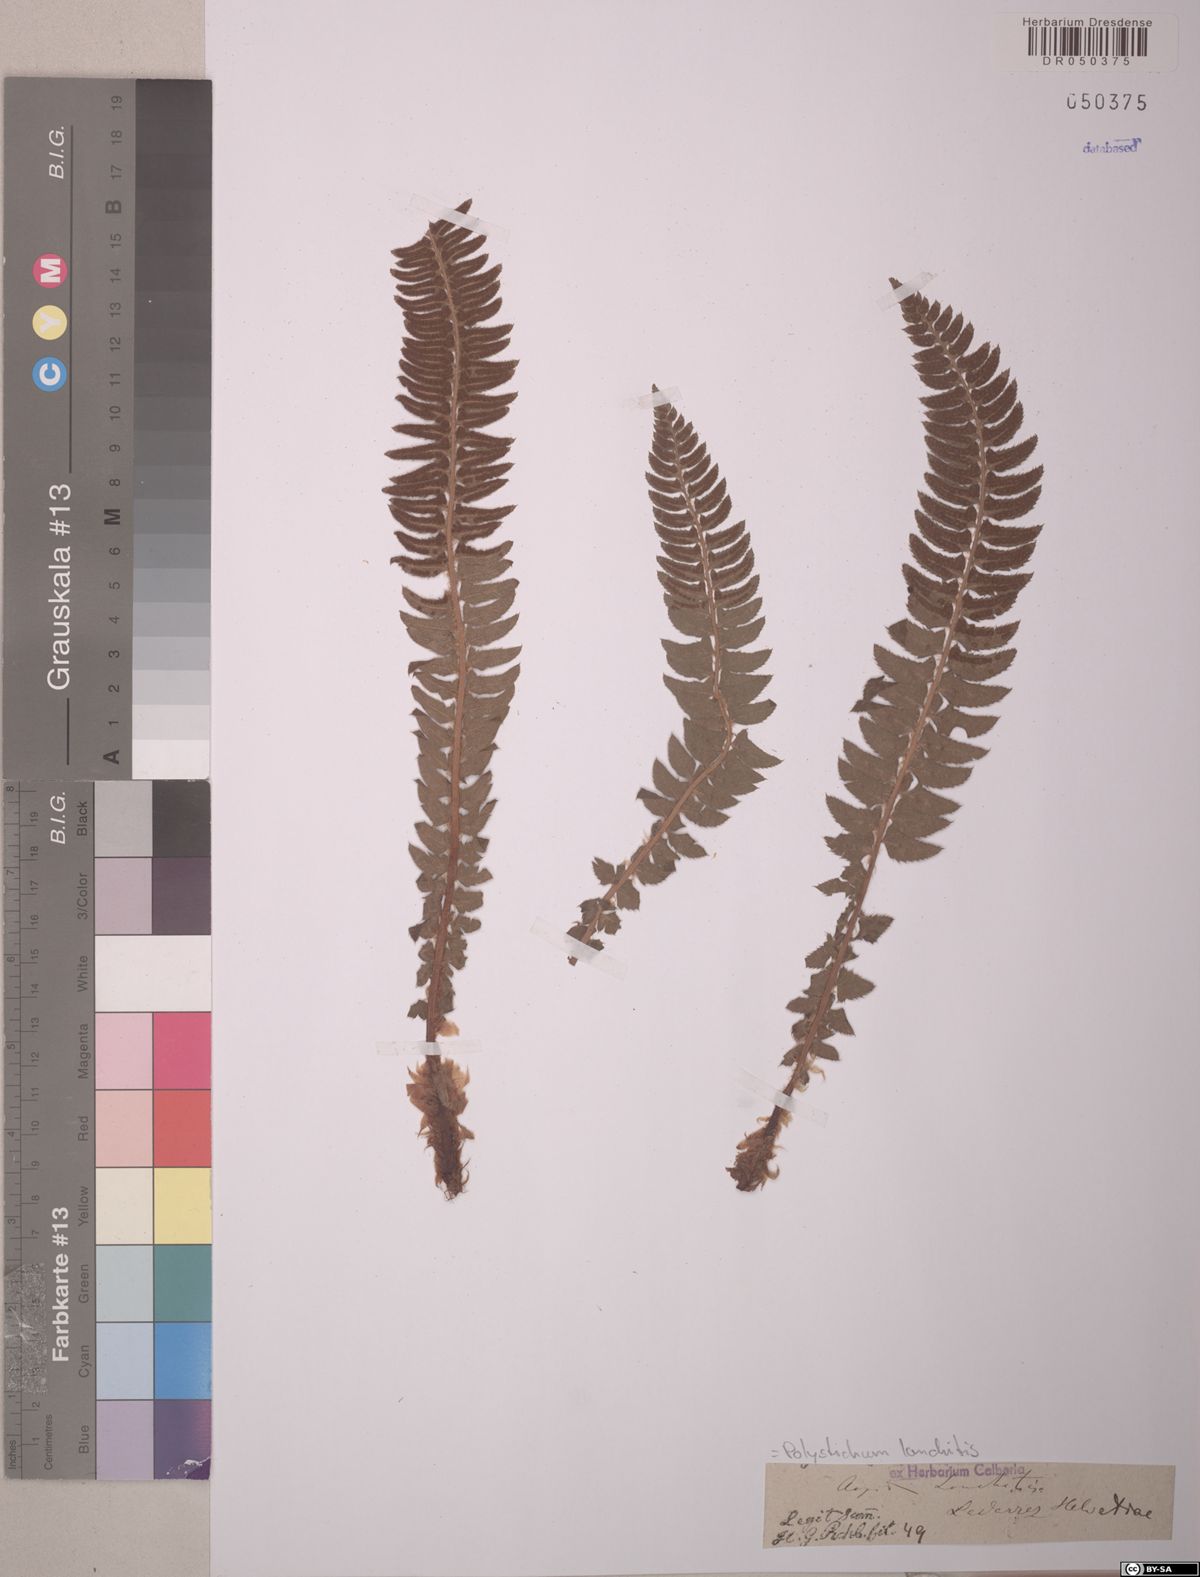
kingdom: Plantae
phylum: Tracheophyta
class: Polypodiopsida
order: Polypodiales
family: Dryopteridaceae
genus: Polystichum
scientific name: Polystichum lonchitis
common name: Holly fern
